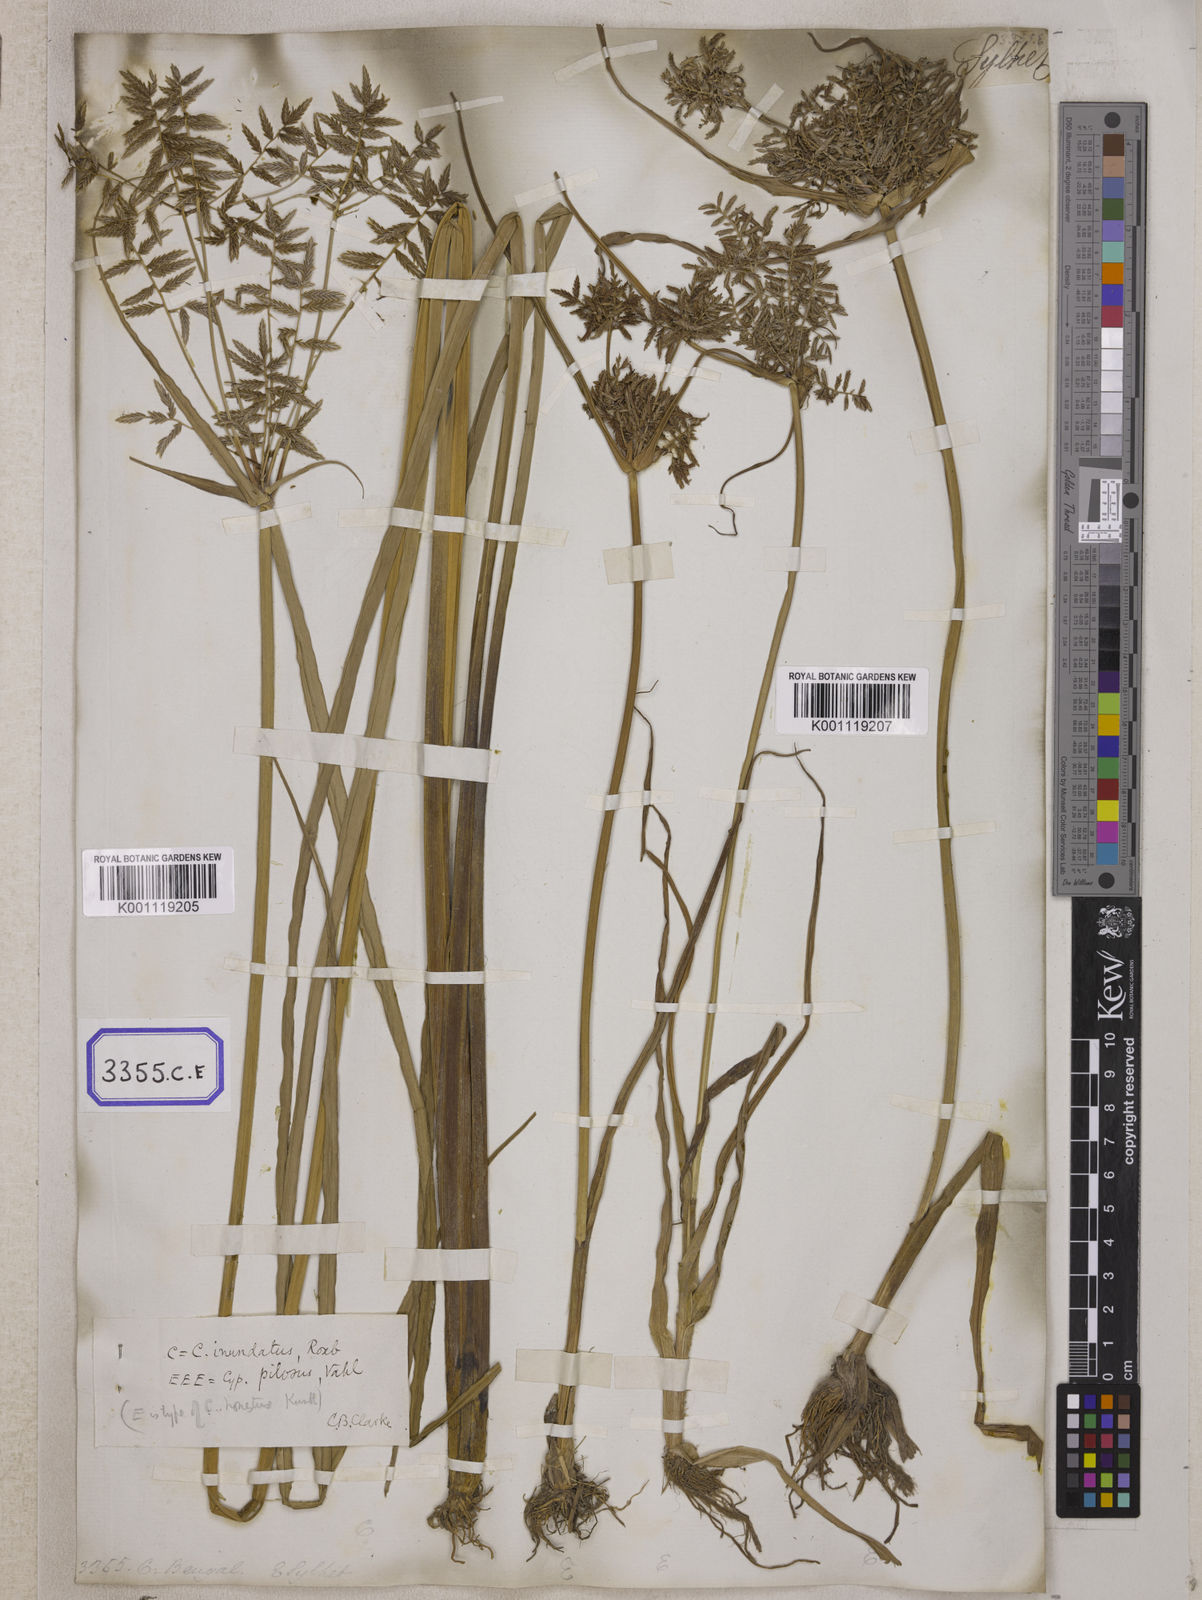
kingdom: Plantae
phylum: Tracheophyta
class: Liliopsida
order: Poales
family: Cyperaceae
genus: Cyperus
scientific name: Cyperus
